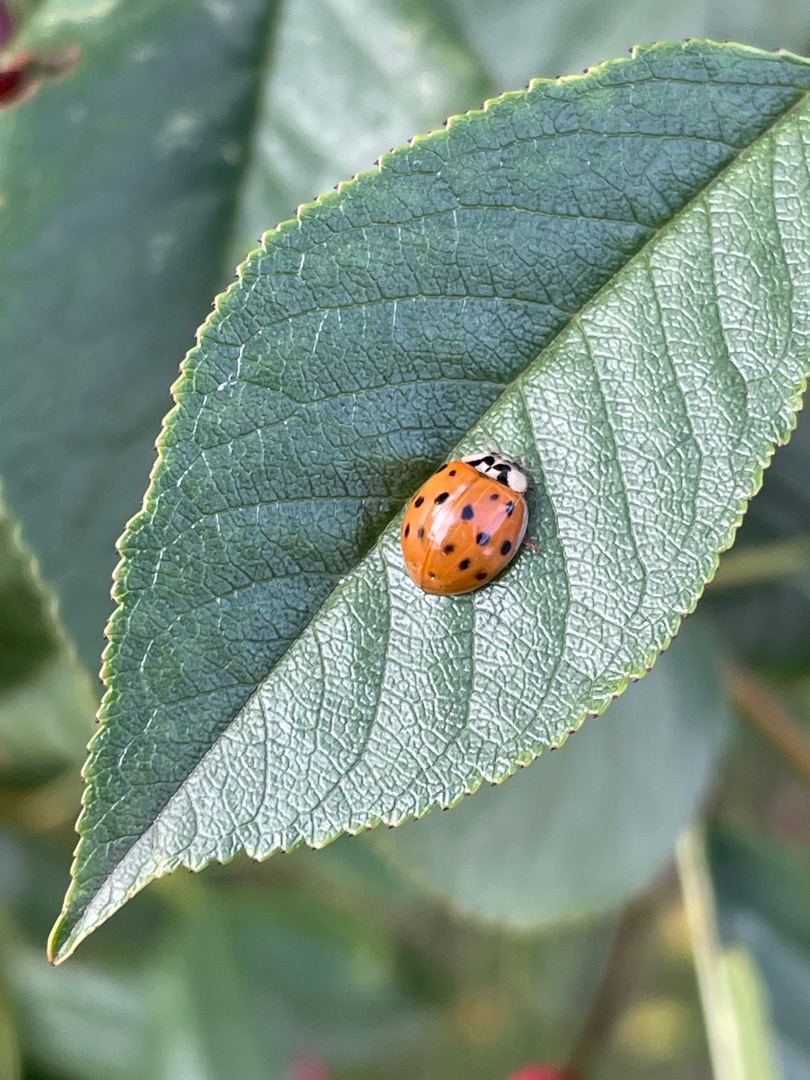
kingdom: Animalia
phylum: Arthropoda
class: Insecta
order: Coleoptera
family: Coccinellidae
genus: Harmonia
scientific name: Harmonia axyridis
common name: Harlekinmariehøne
